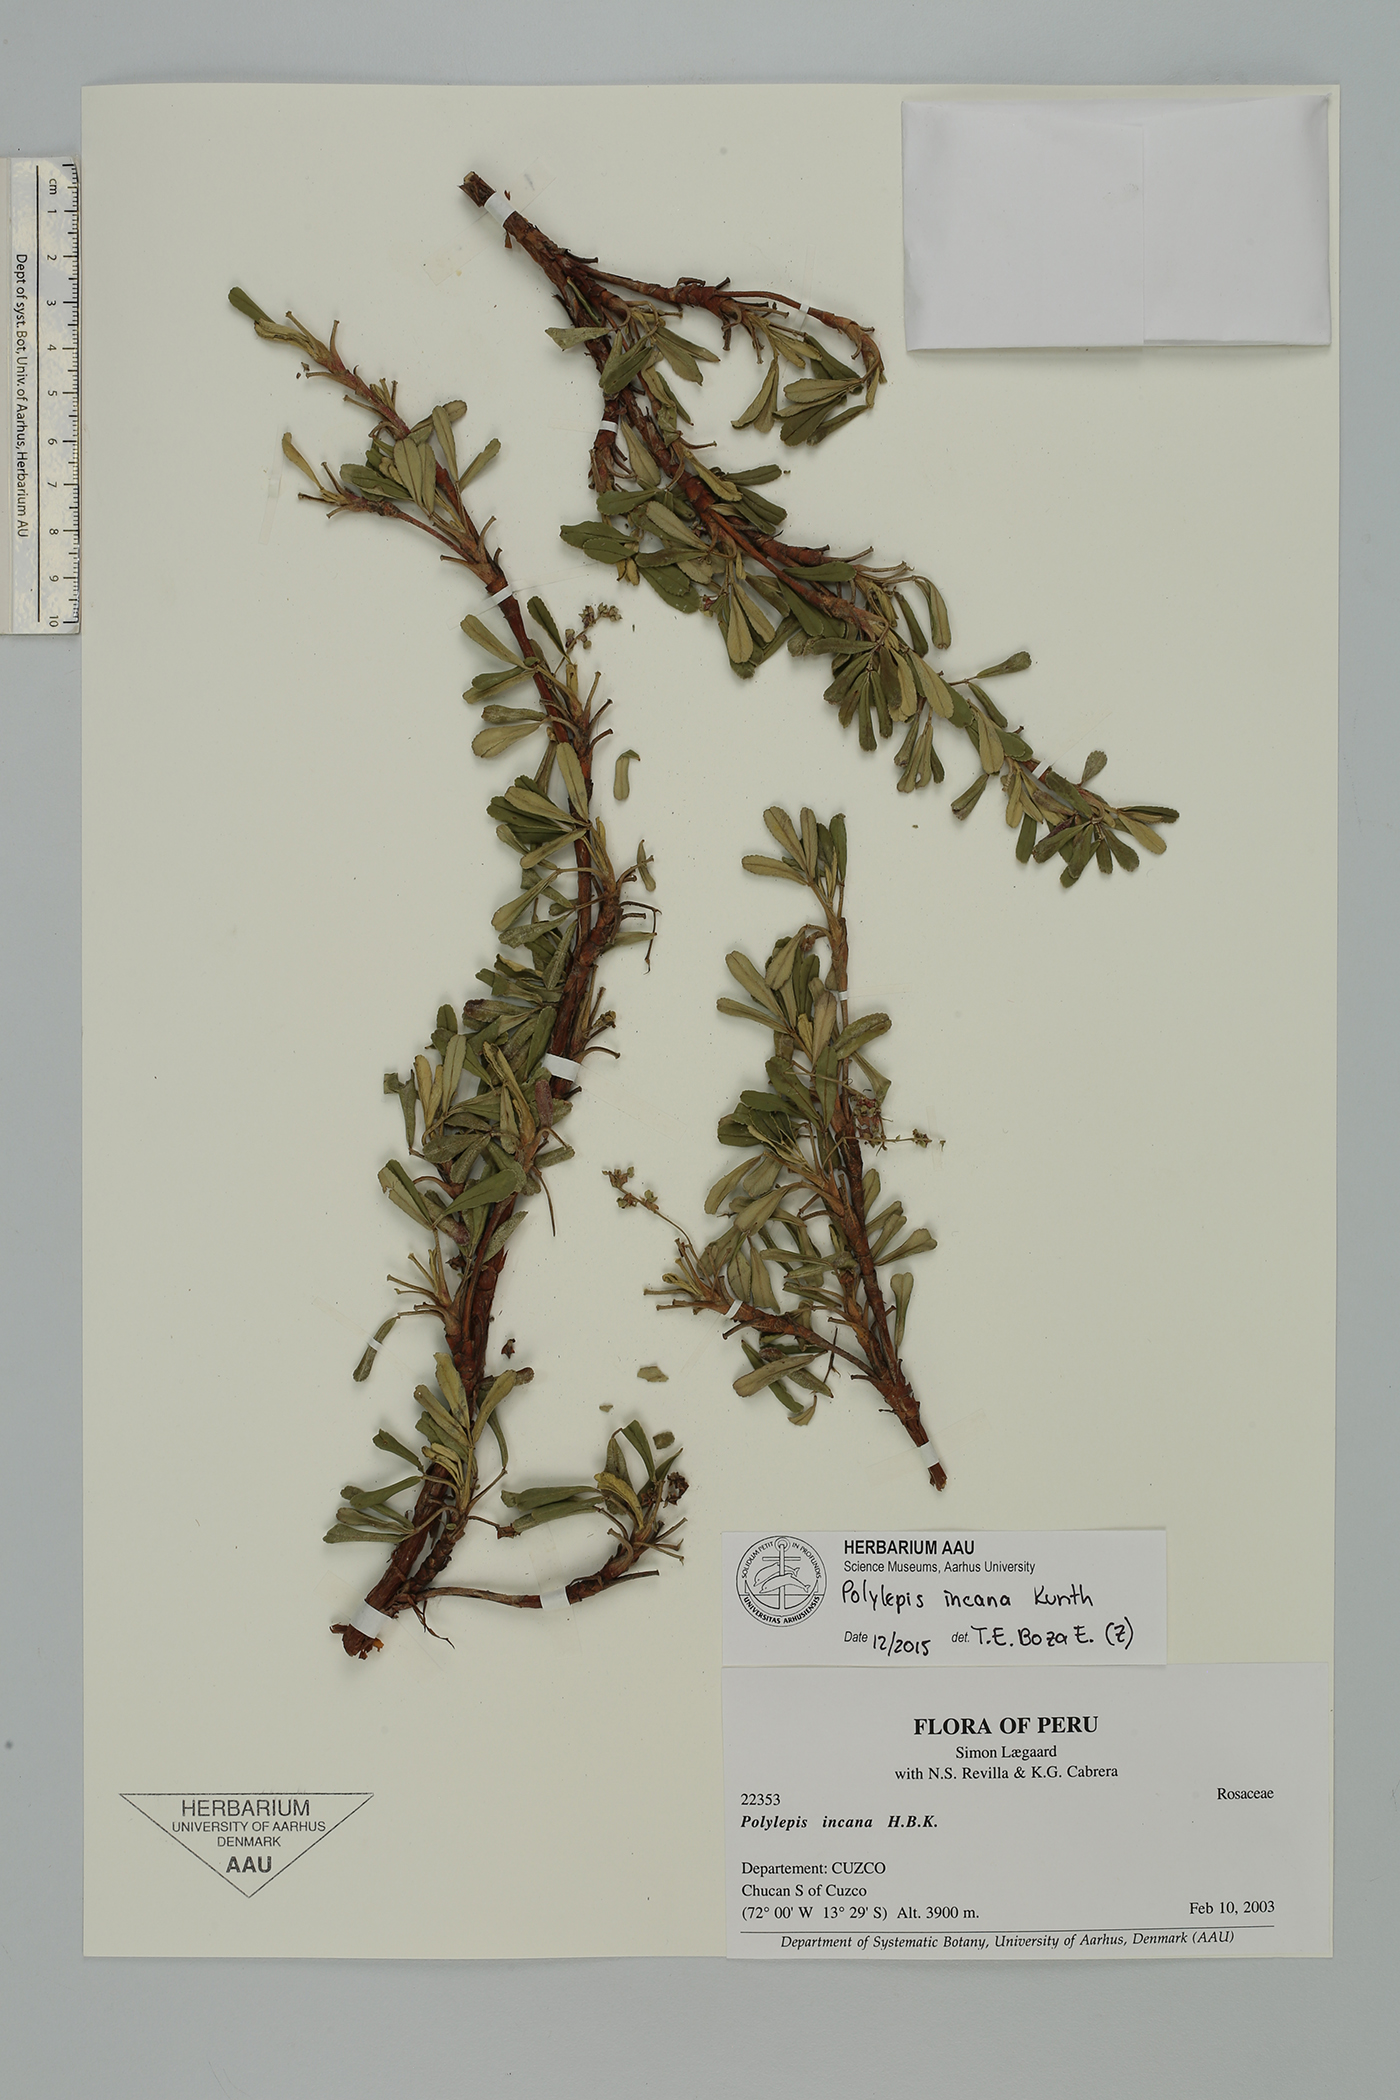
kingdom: Plantae
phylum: Tracheophyta
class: Magnoliopsida
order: Rosales
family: Rosaceae
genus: Polylepis
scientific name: Polylepis incana
